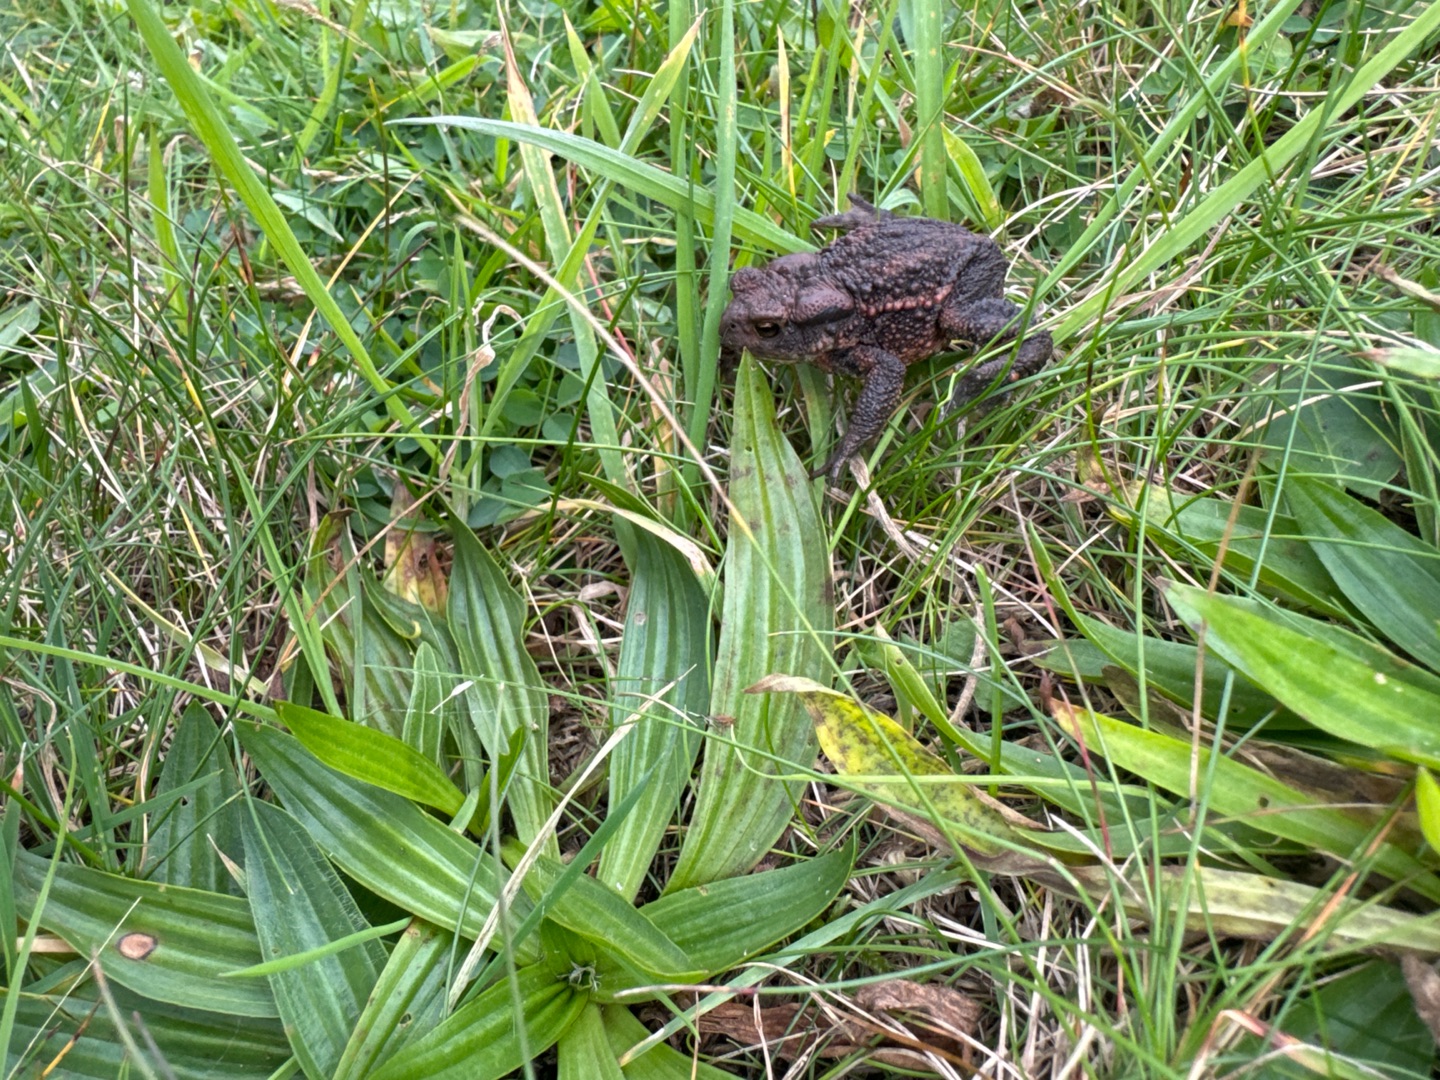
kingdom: Animalia
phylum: Chordata
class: Amphibia
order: Anura
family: Bufonidae
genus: Bufo
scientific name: Bufo bufo
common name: Skrubtudse
